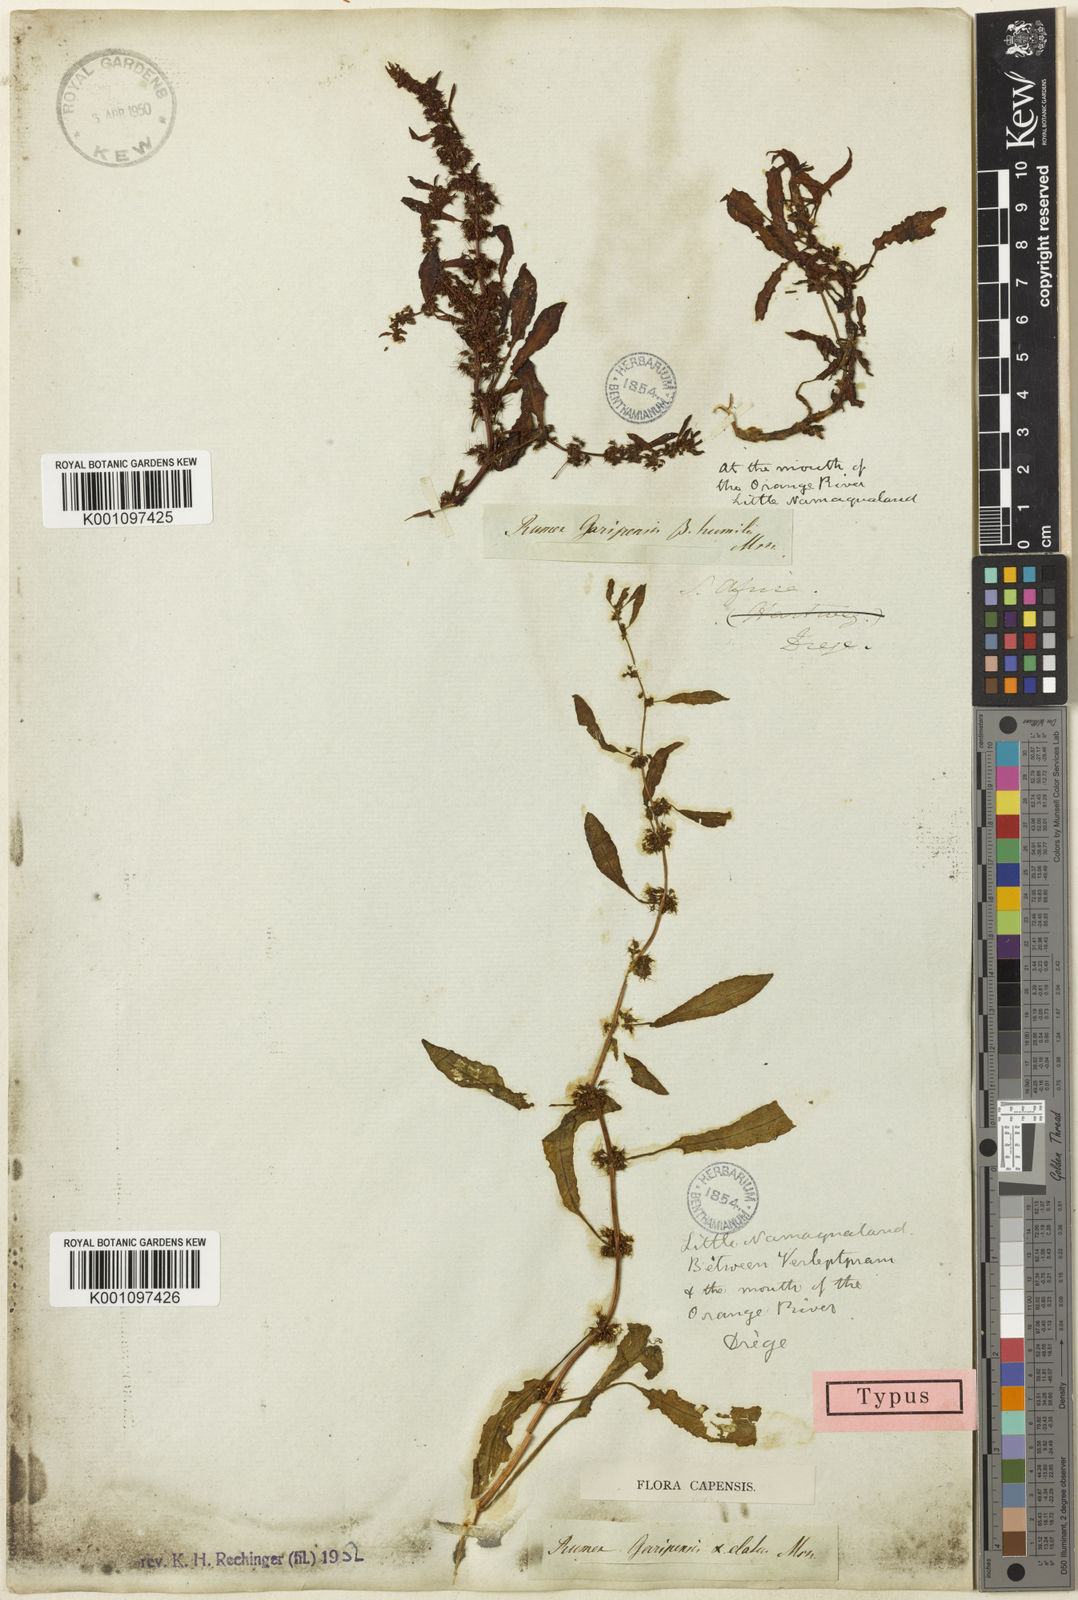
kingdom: Plantae
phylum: Tracheophyta
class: Magnoliopsida
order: Caryophyllales
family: Polygonaceae
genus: Rumex
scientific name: Rumex marschallianus
